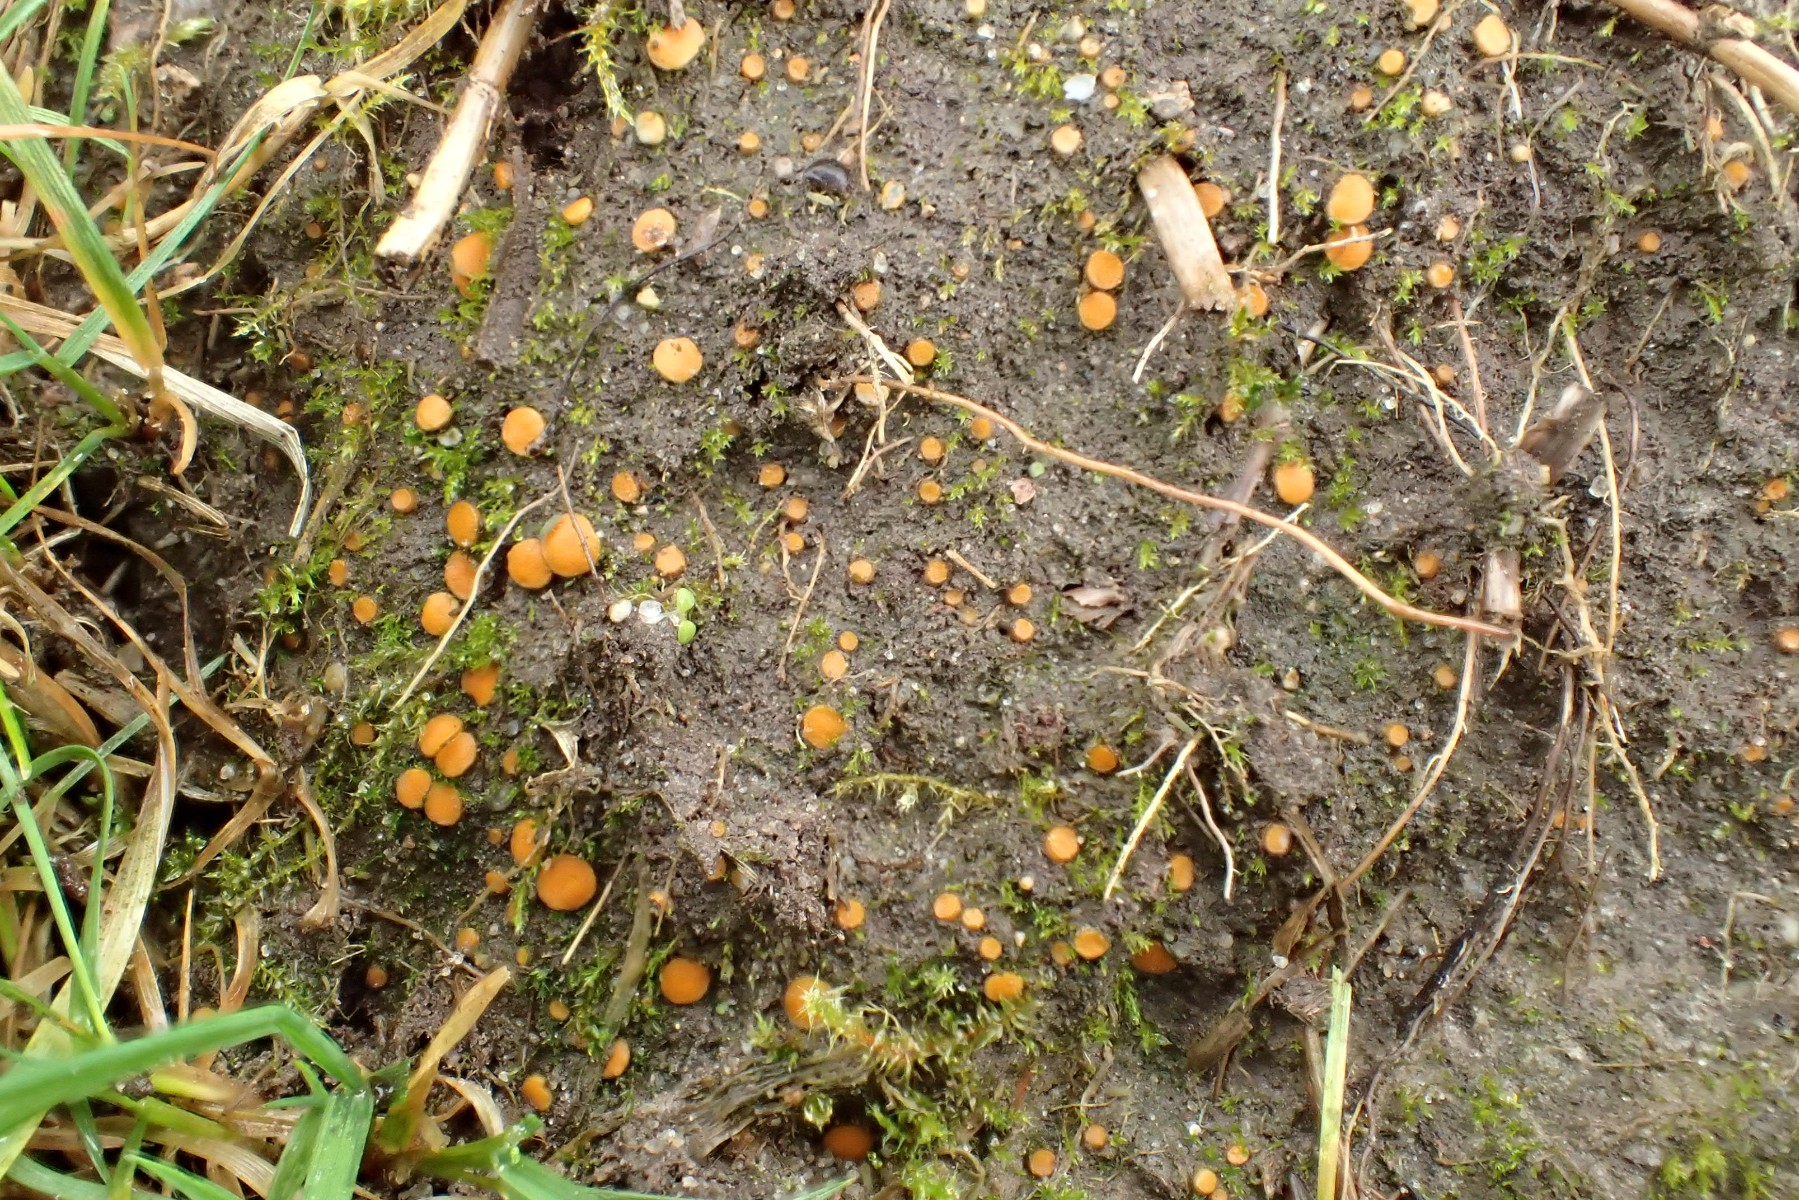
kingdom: Fungi
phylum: Ascomycota
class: Pezizomycetes
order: Pezizales
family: Pyronemataceae
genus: Lamprospora
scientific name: Lamprospora crechqueraultii
